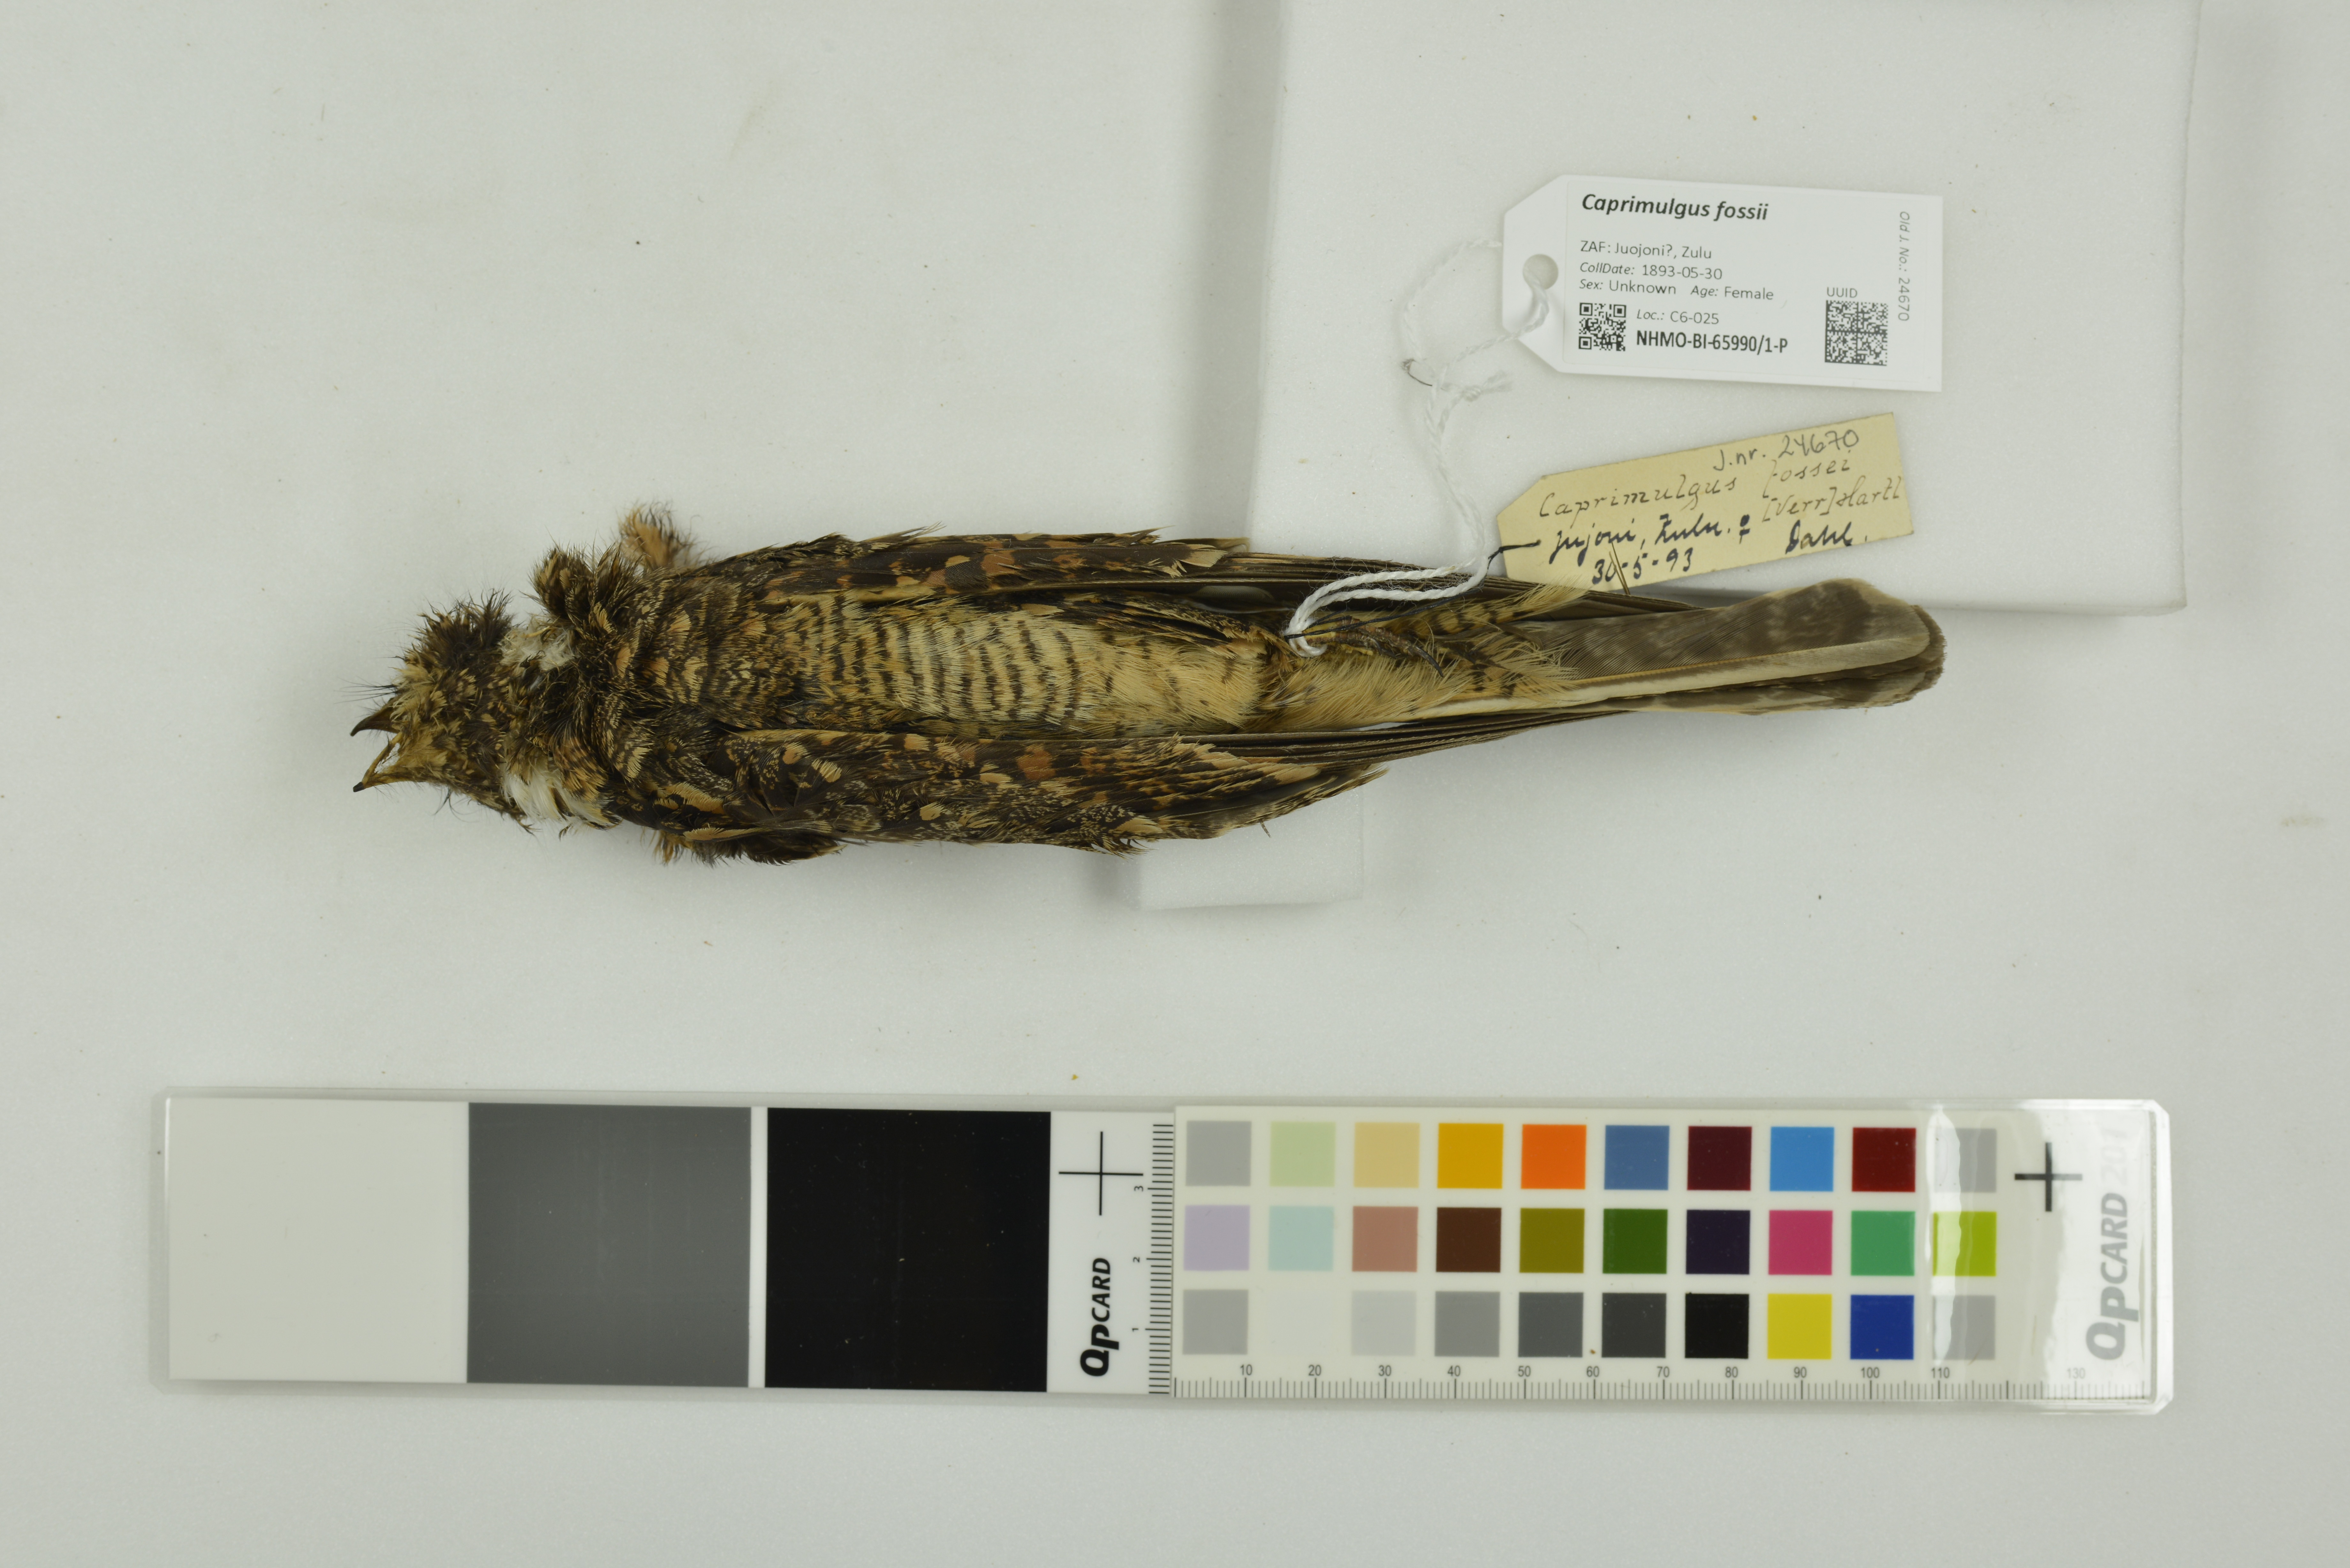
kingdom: Animalia
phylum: Chordata
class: Aves
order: Caprimulgiformes
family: Caprimulgidae
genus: Caprimulgus
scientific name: Caprimulgus fossii
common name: Square-tailed nightjar
